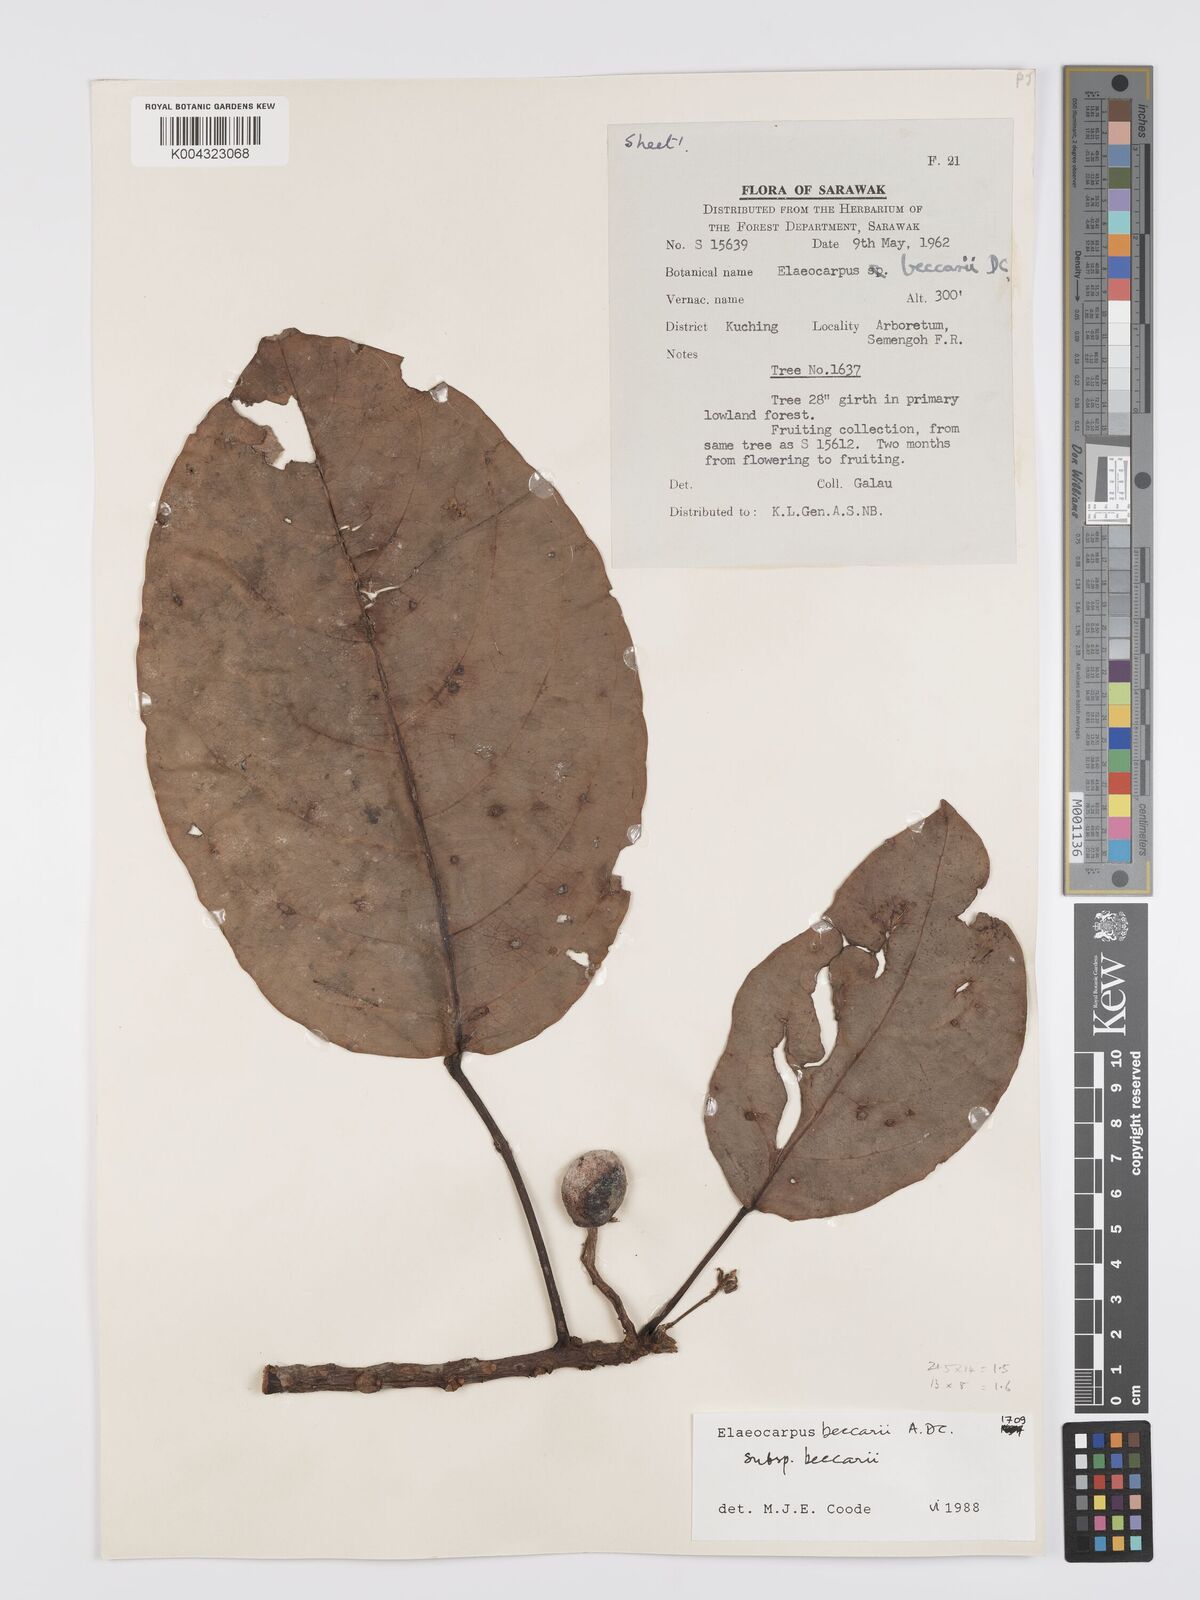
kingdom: Plantae
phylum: Tracheophyta
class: Magnoliopsida
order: Oxalidales
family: Elaeocarpaceae
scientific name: Elaeocarpaceae
